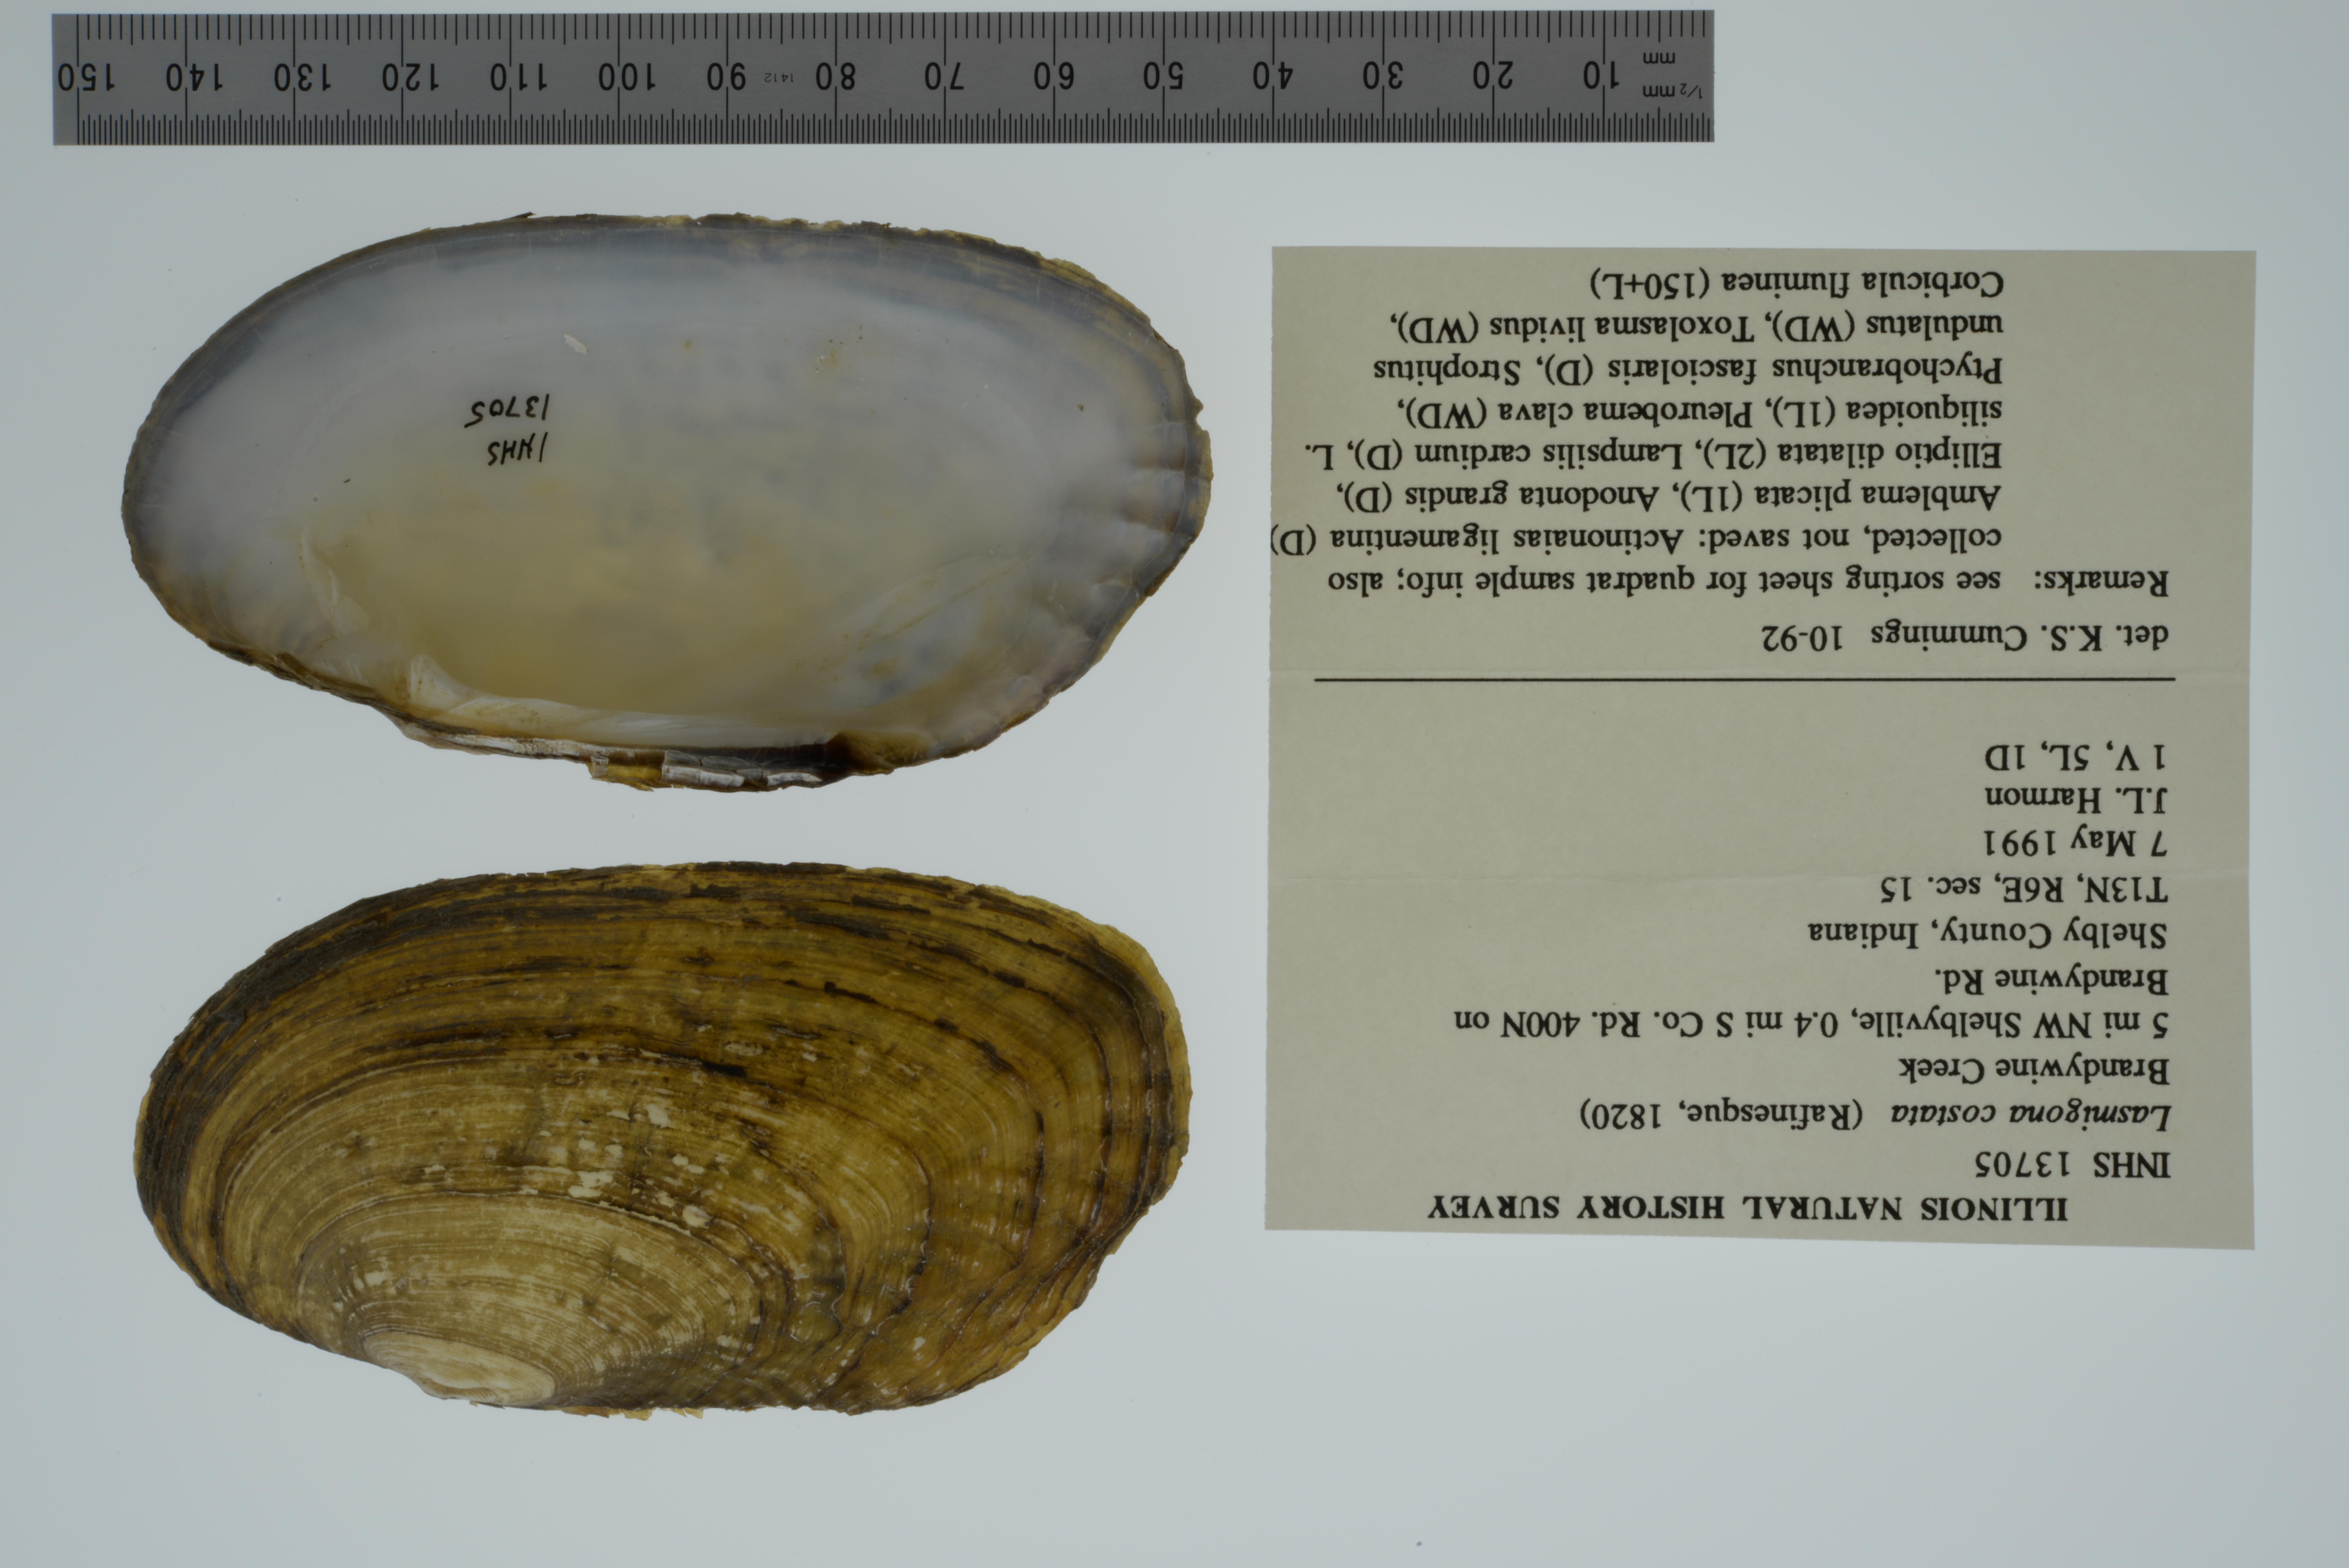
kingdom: Animalia
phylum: Mollusca
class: Bivalvia
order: Unionida
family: Unionidae
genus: Lasmigona
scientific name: Lasmigona costata
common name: Flutedshell
